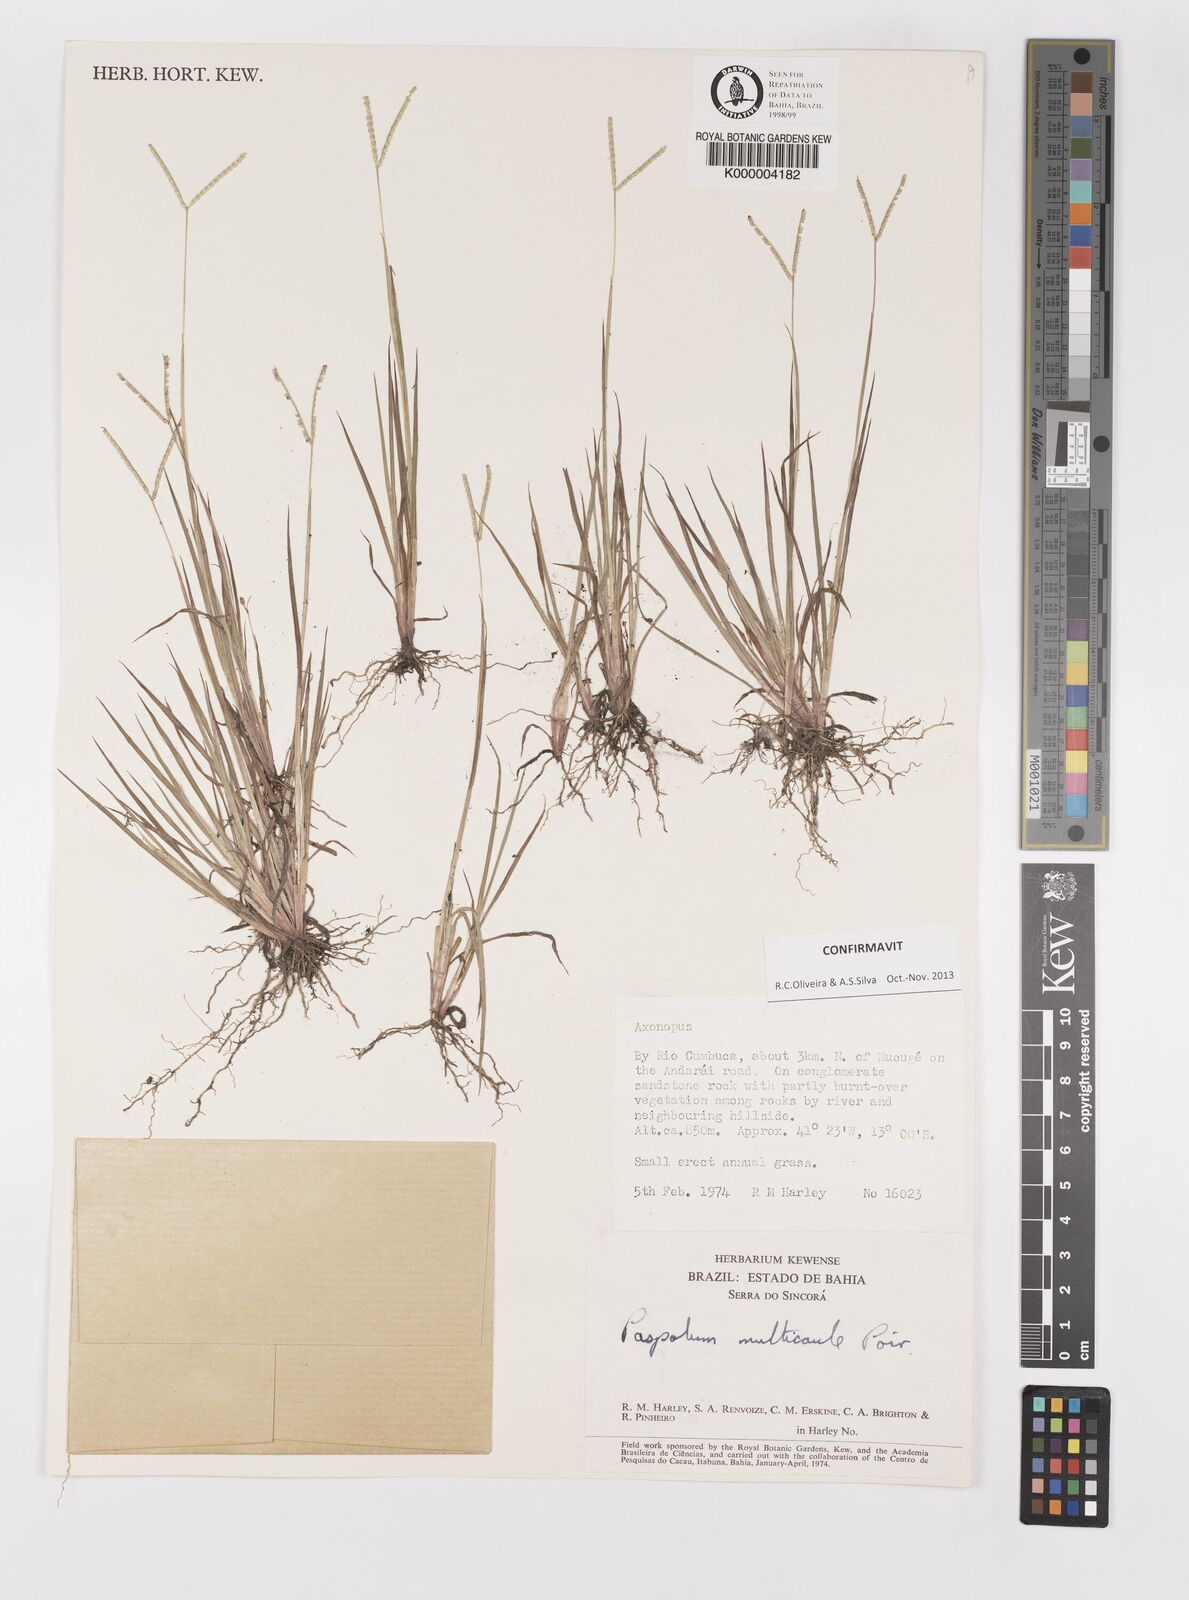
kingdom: Plantae
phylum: Tracheophyta
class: Liliopsida
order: Poales
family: Poaceae
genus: Paspalum
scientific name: Paspalum multicaule
